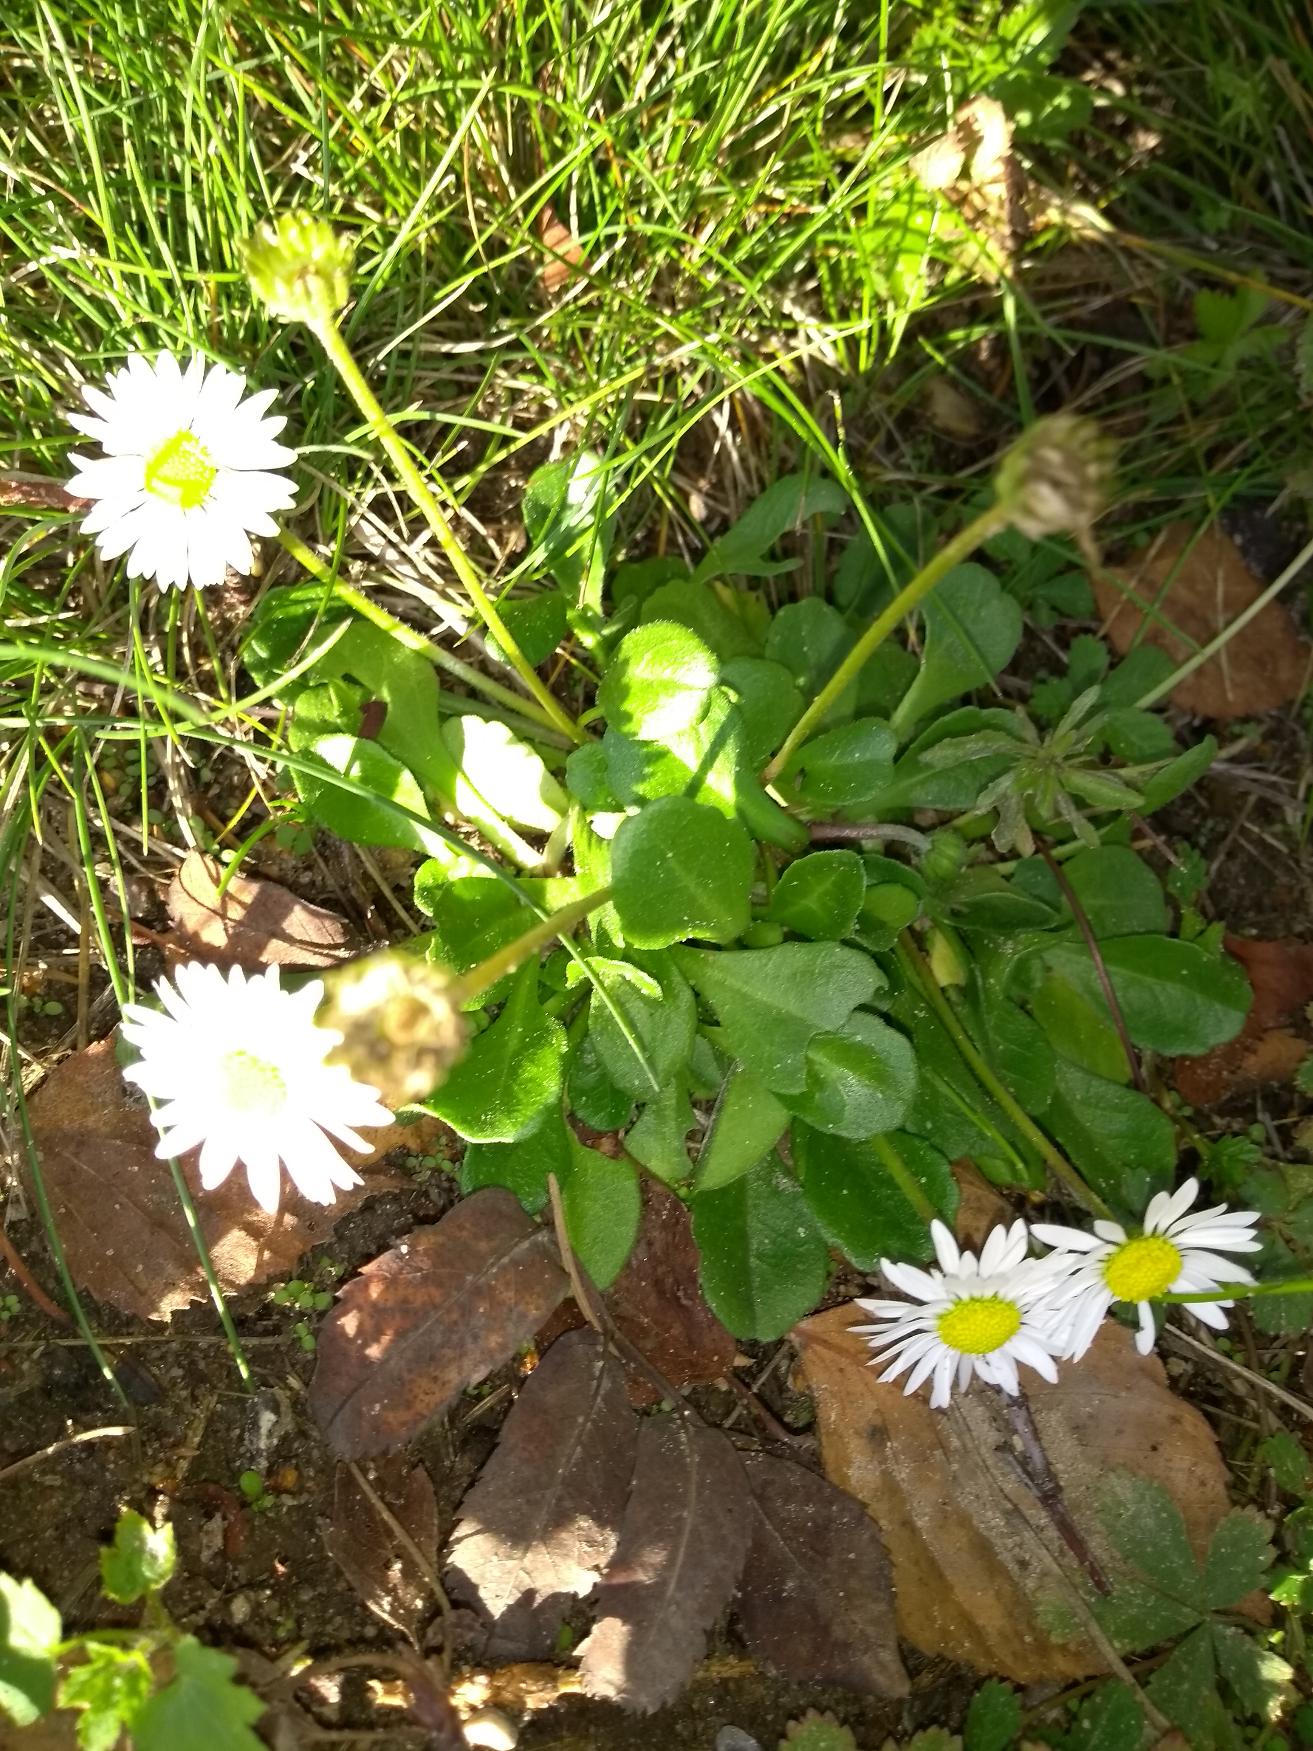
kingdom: Plantae
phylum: Tracheophyta
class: Magnoliopsida
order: Asterales
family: Asteraceae
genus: Bellis
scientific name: Bellis perennis
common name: Tusindfryd
